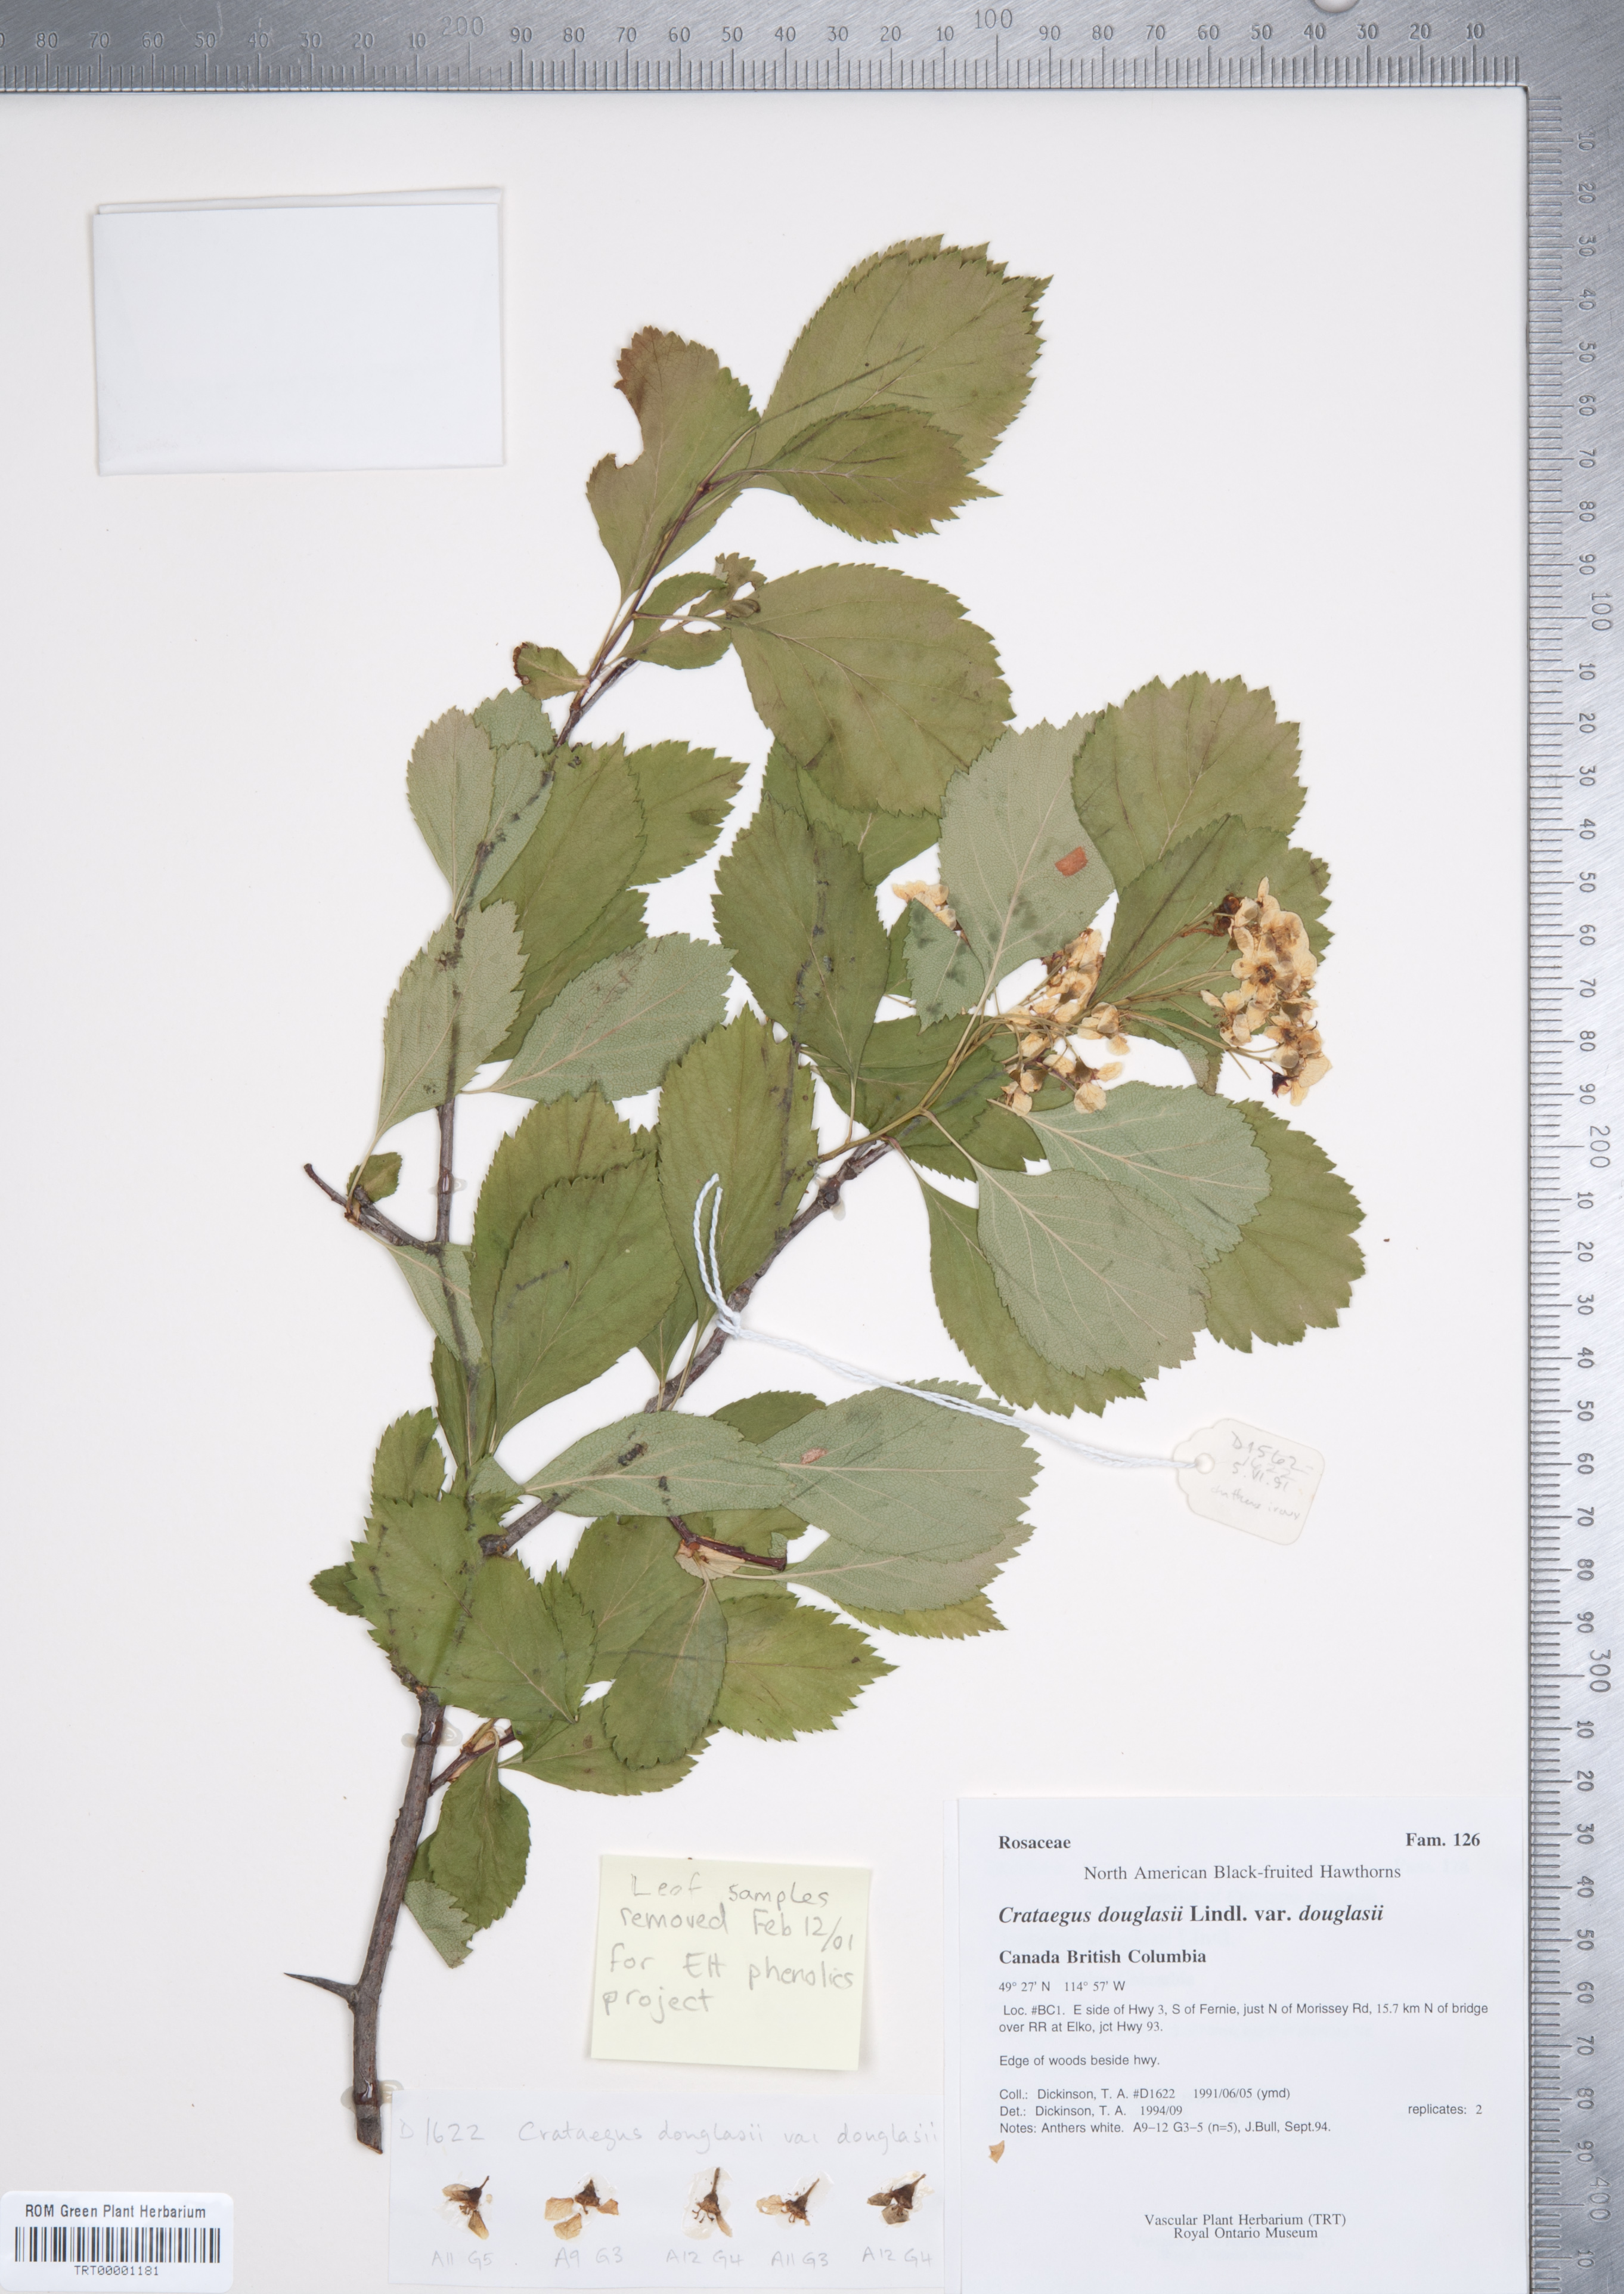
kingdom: Plantae
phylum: Tracheophyta
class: Magnoliopsida
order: Rosales
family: Rosaceae
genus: Crataegus
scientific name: Crataegus douglasii
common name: Black hawthorn
